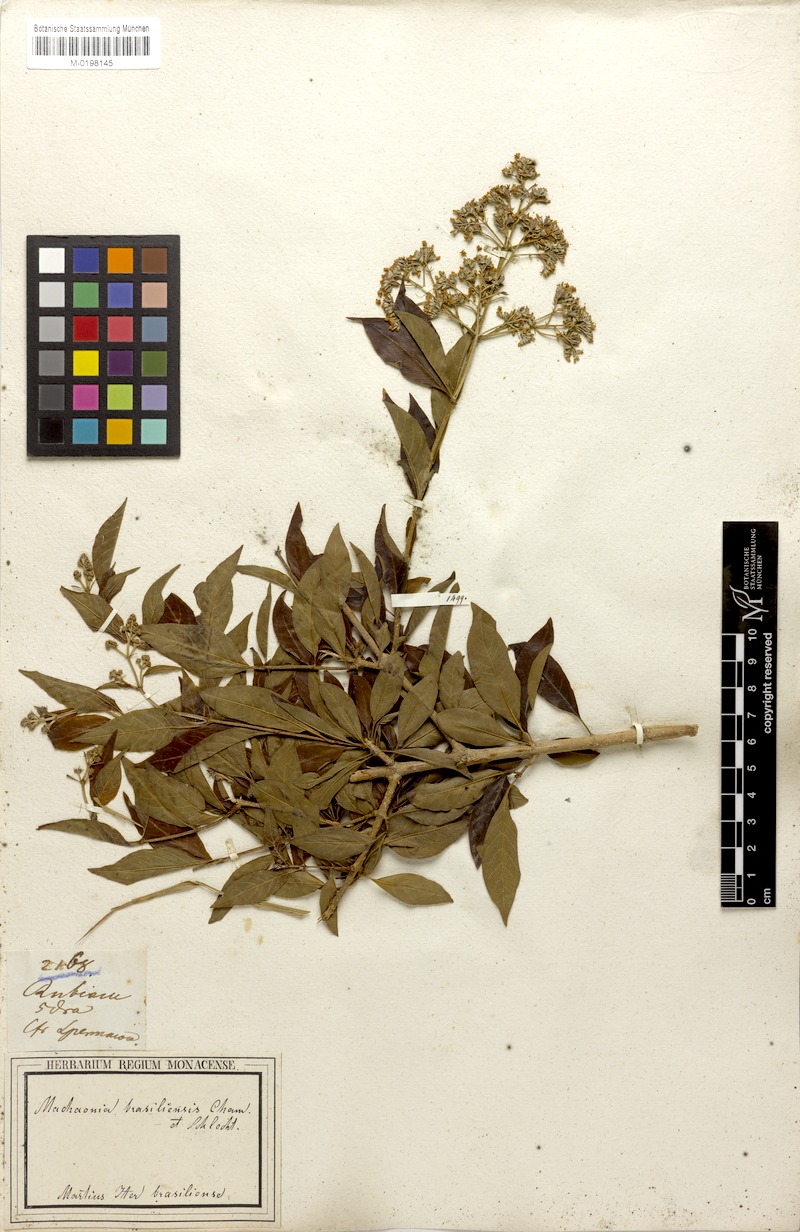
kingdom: Plantae
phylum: Tracheophyta
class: Magnoliopsida
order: Gentianales
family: Rubiaceae
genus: Machaonia
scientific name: Machaonia brasiliensis
